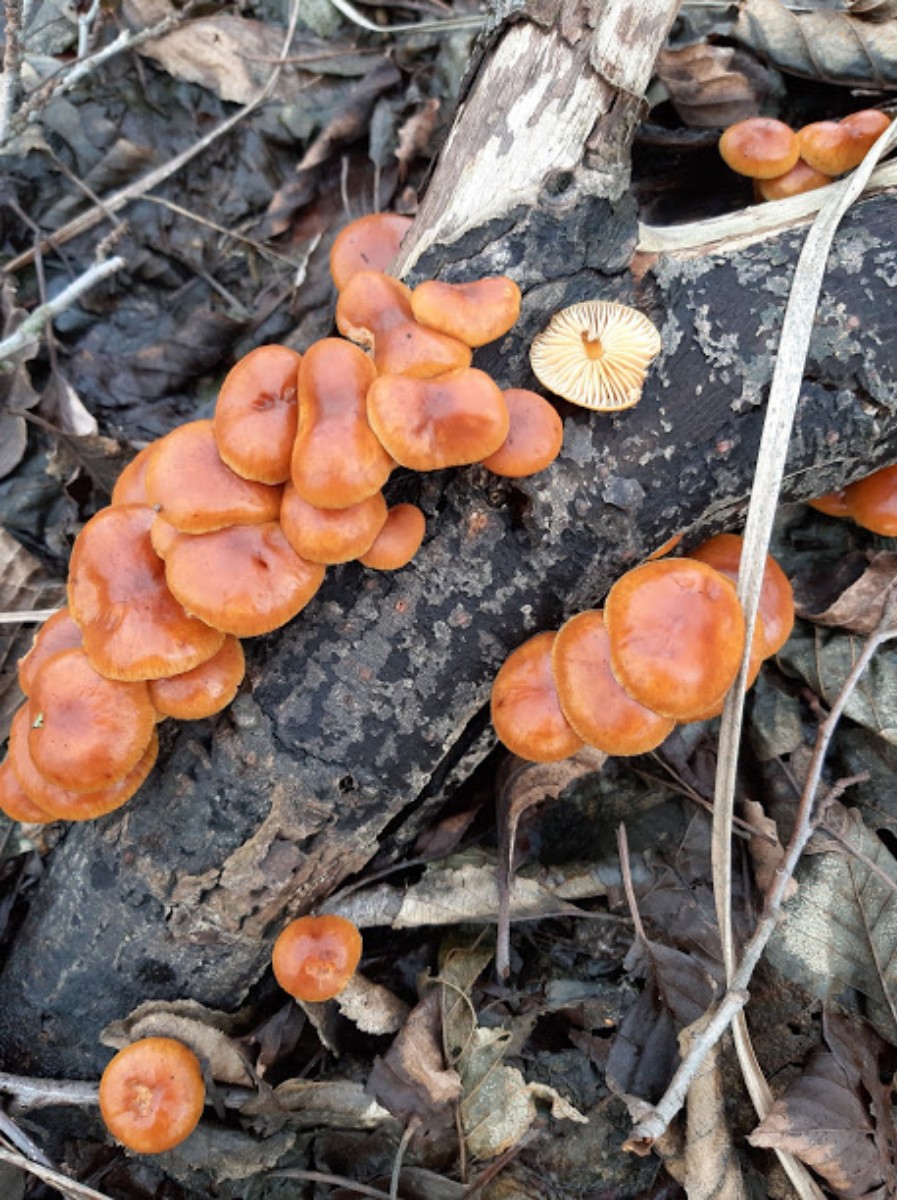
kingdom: Fungi
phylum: Basidiomycota
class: Agaricomycetes
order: Agaricales
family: Physalacriaceae
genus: Flammulina
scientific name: Flammulina velutipes
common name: gul fløjlsfod
